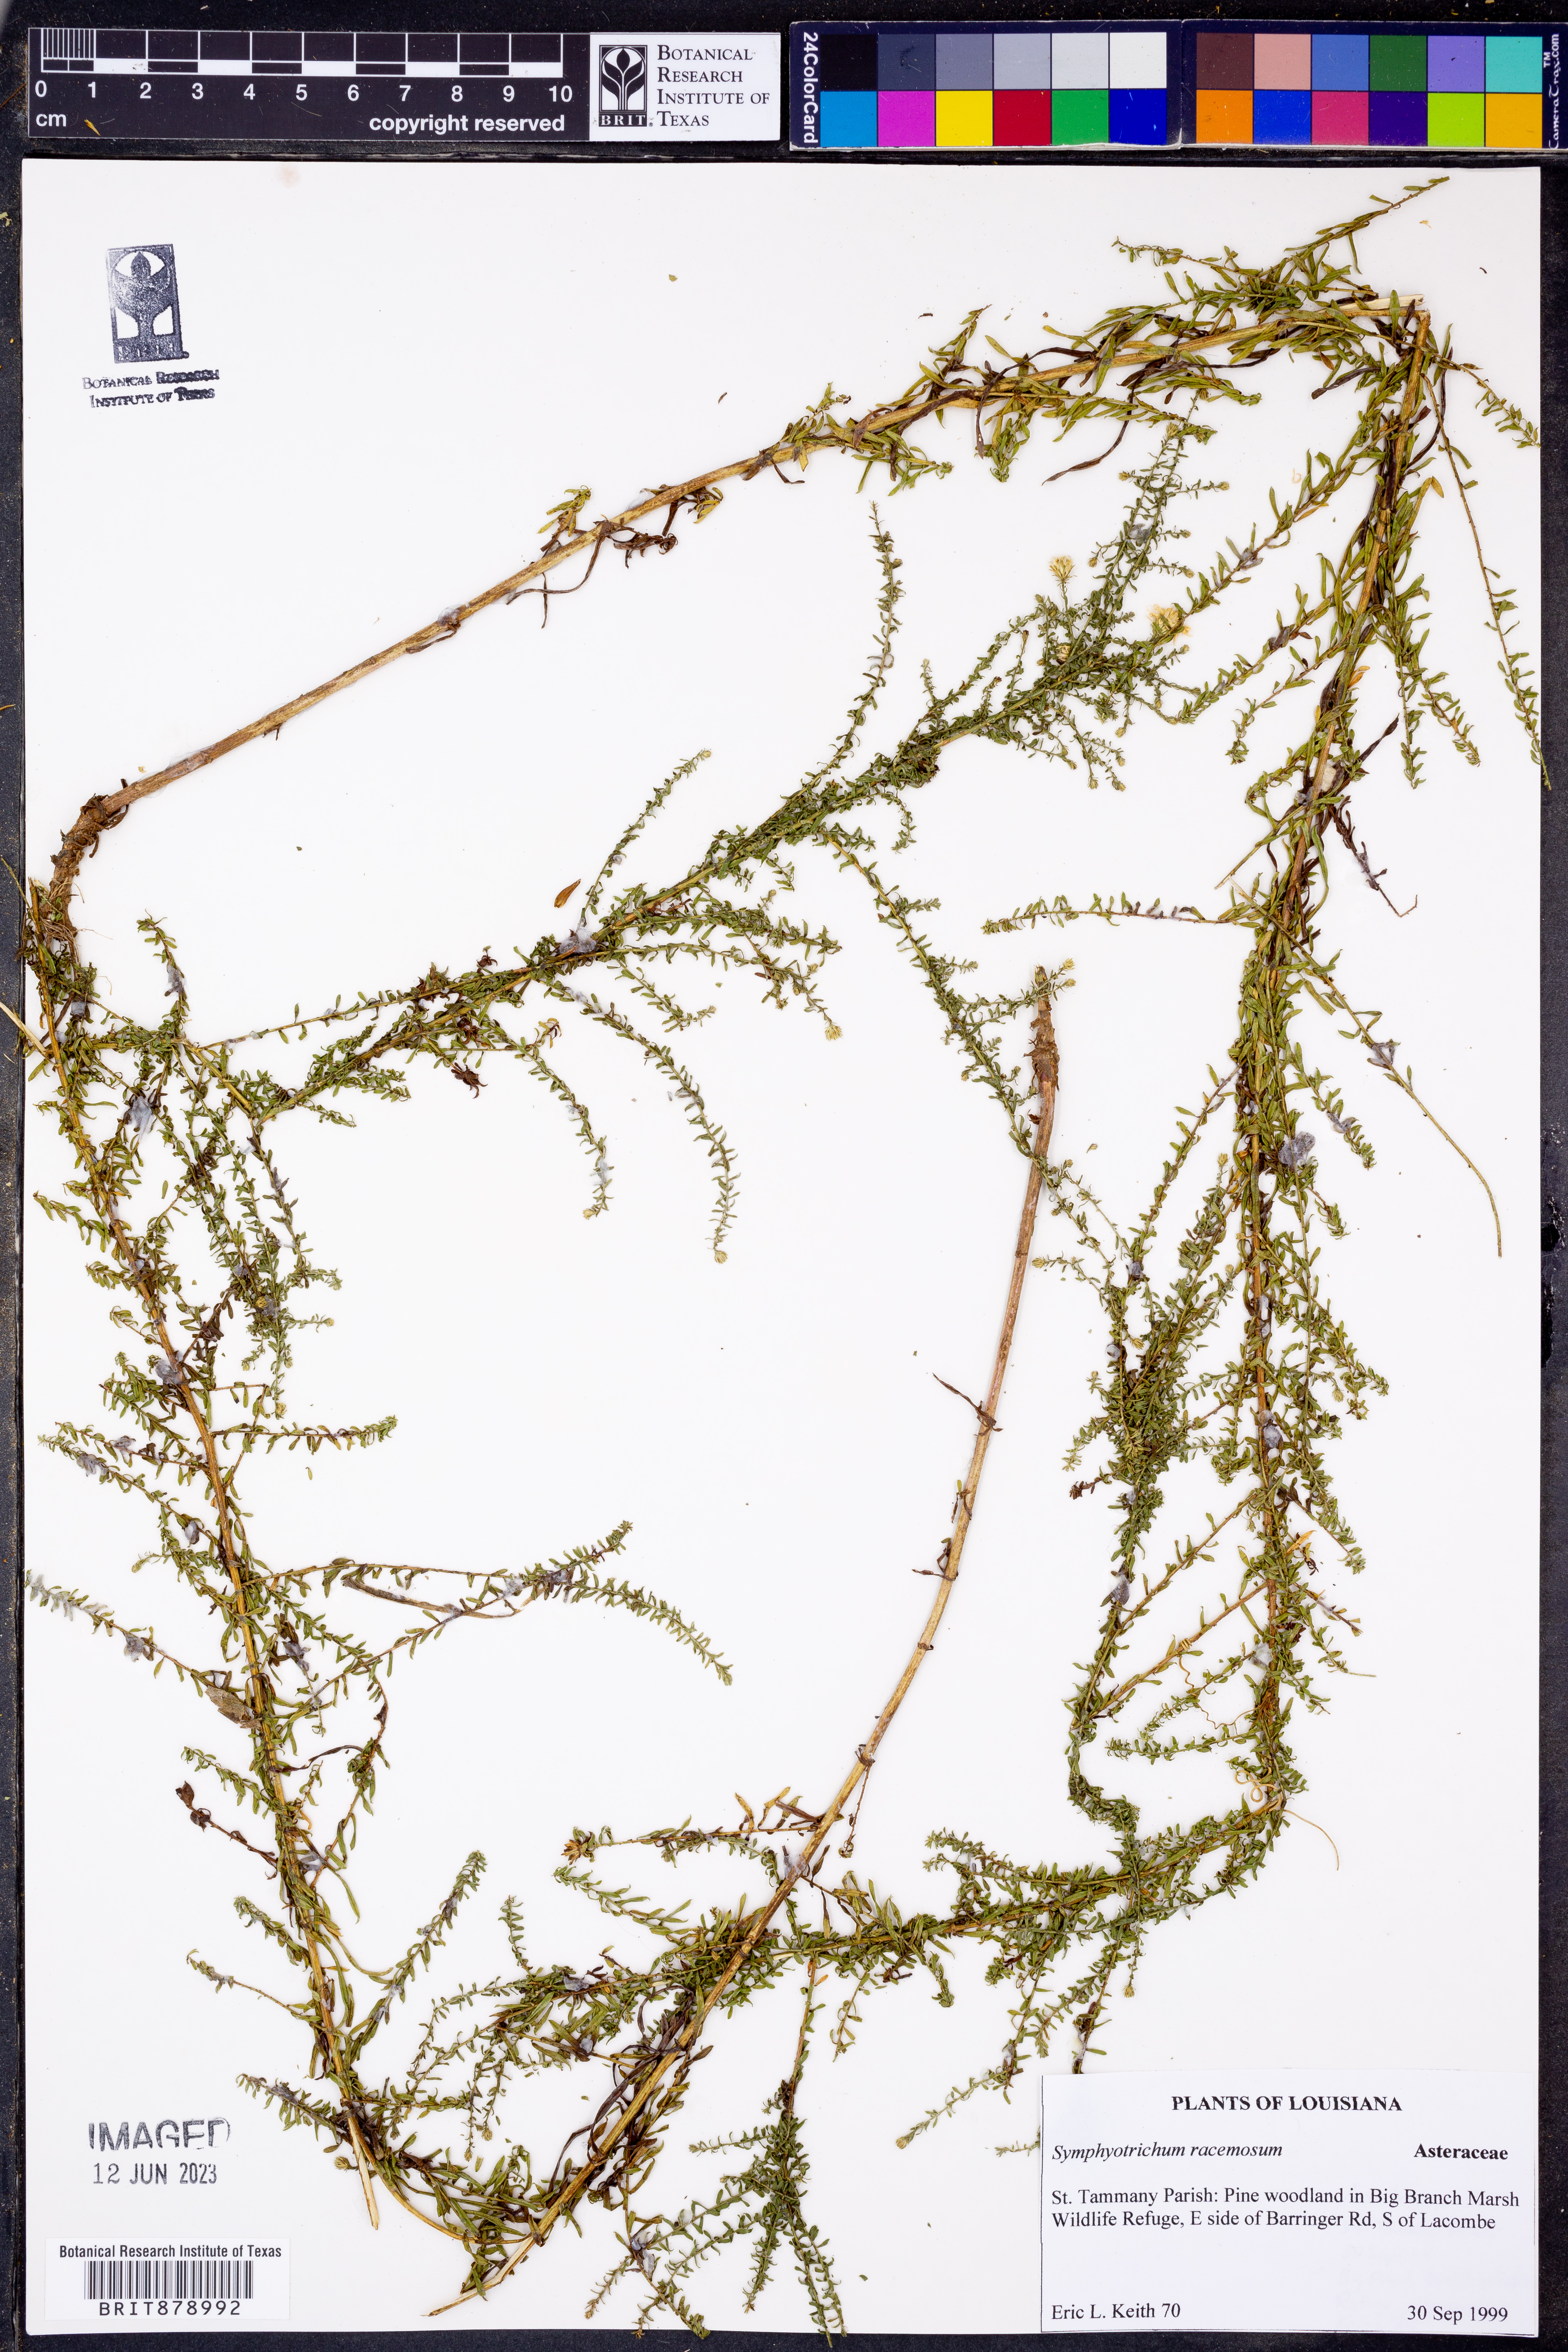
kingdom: Plantae
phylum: Tracheophyta
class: Magnoliopsida
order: Asterales
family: Asteraceae
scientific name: Asteraceae
